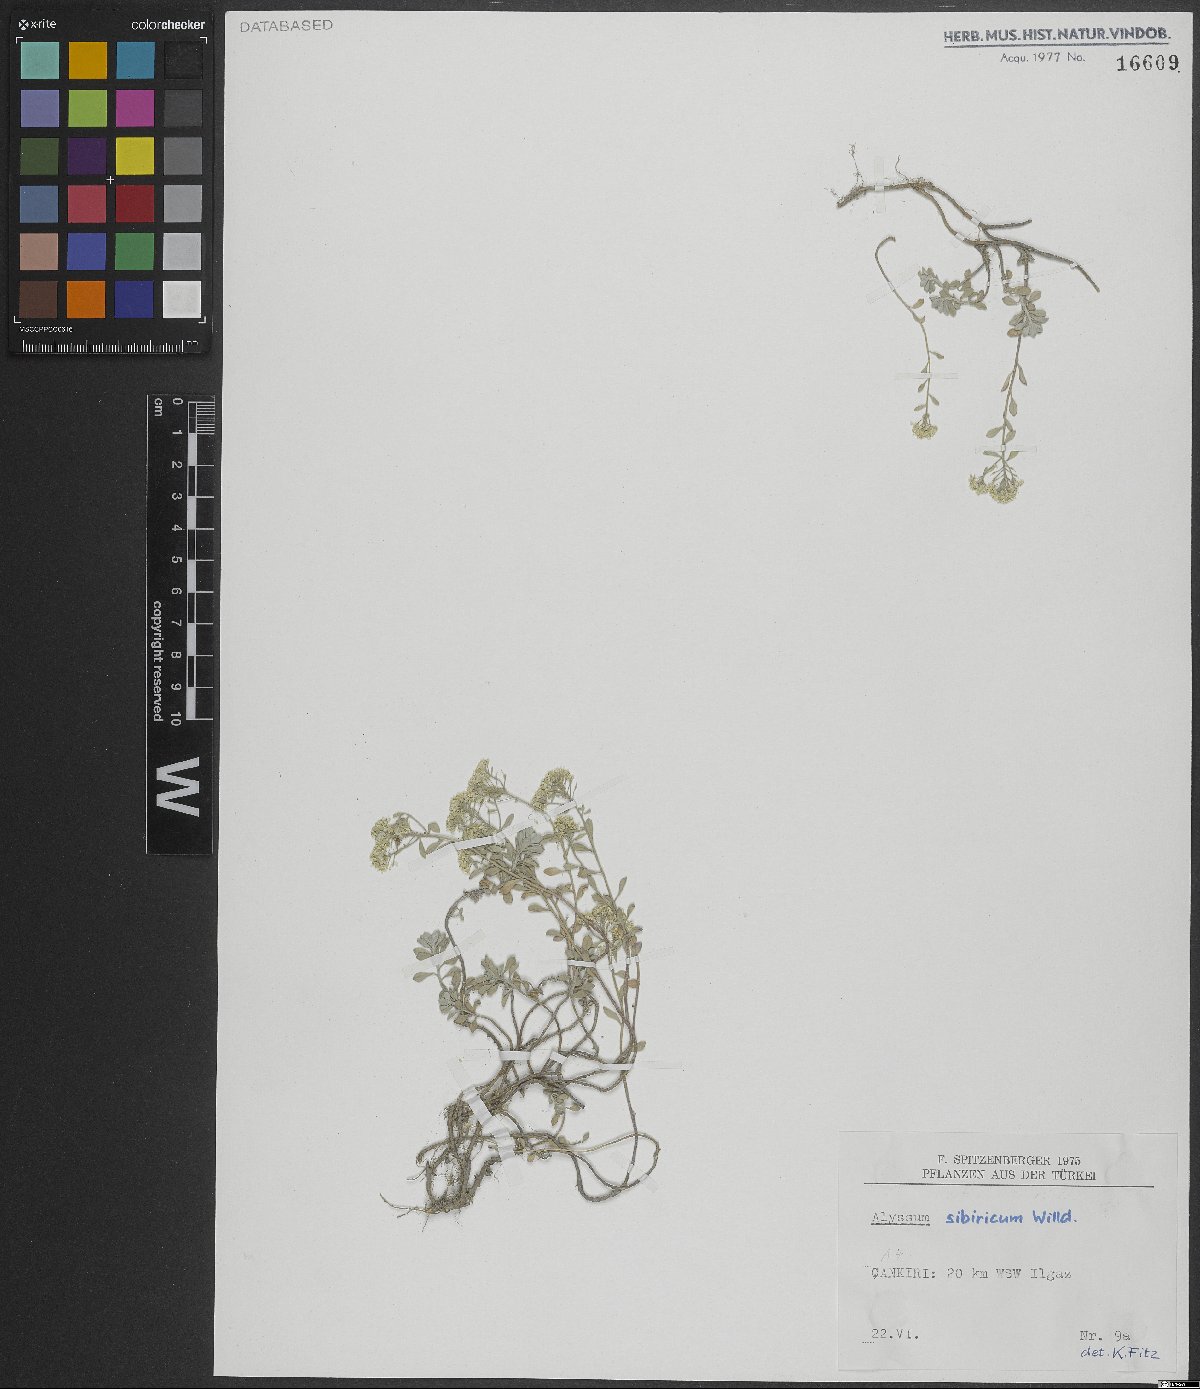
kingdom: Plantae
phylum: Tracheophyta
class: Magnoliopsida
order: Brassicales
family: Brassicaceae
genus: Odontarrhena
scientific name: Odontarrhena sibirica
